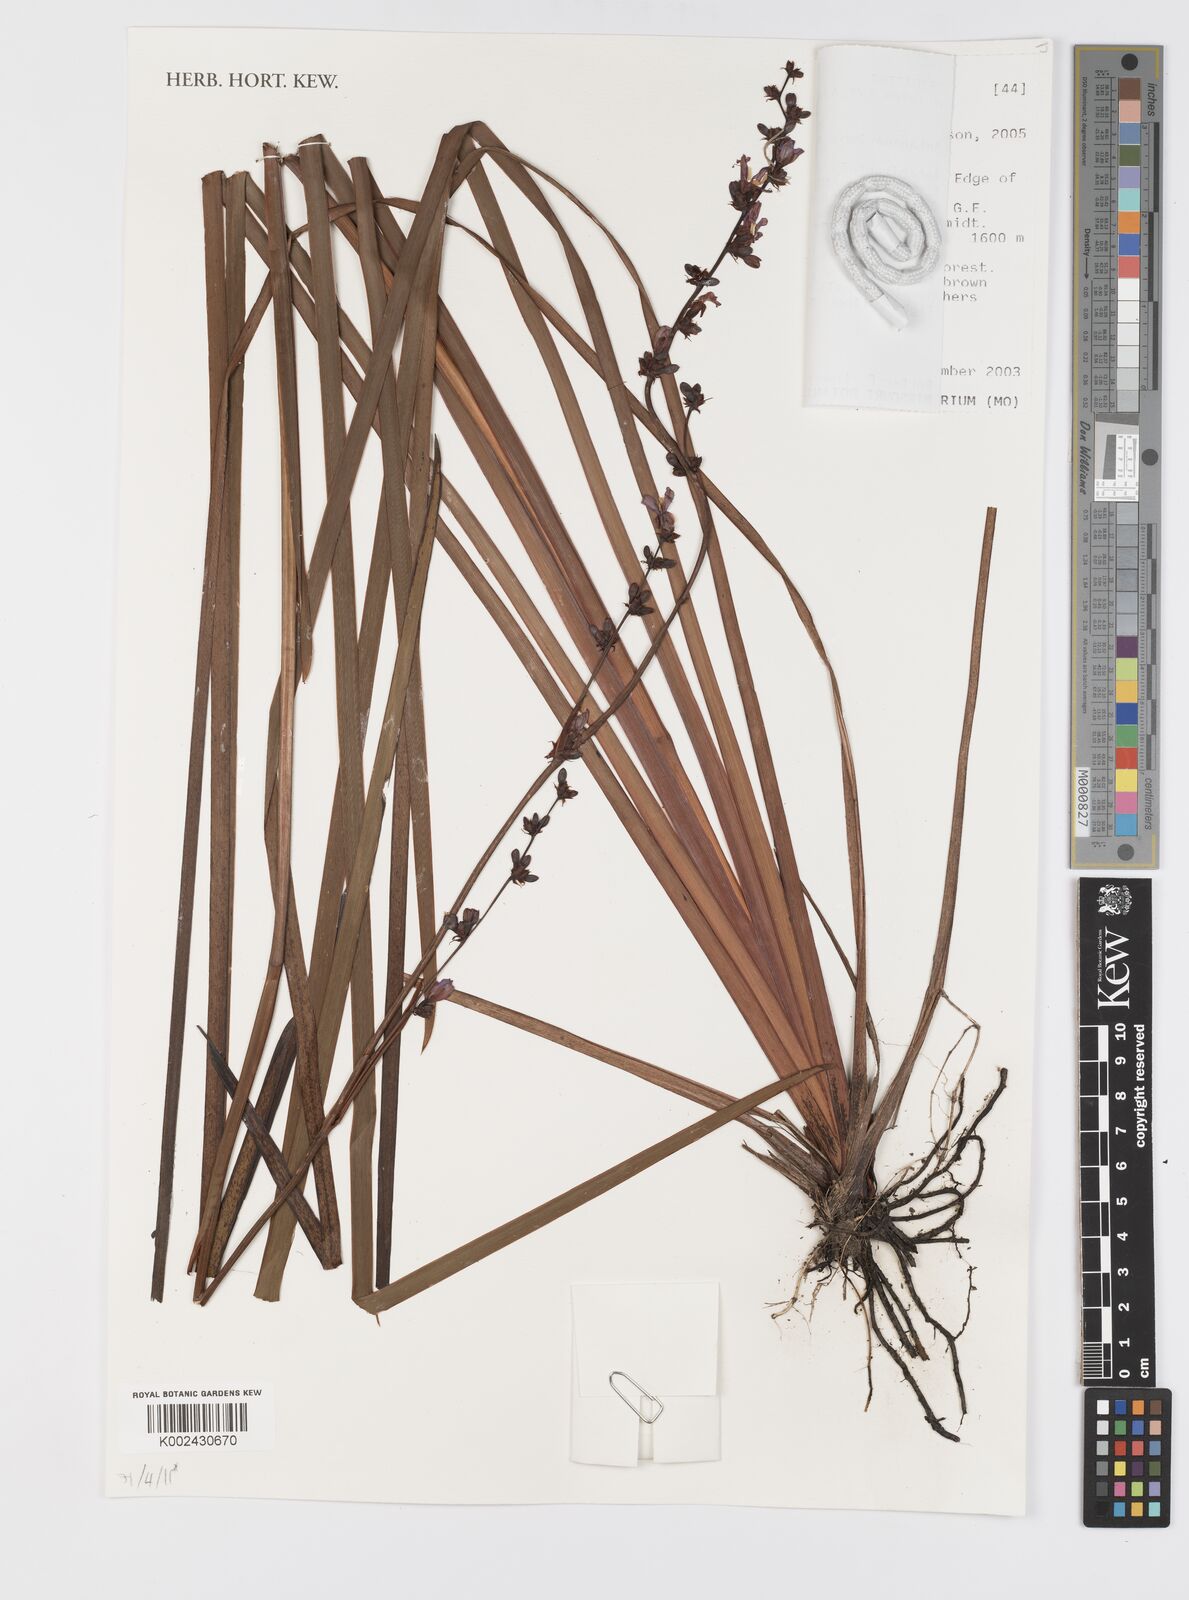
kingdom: Plantae
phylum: Tracheophyta
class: Liliopsida
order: Asparagales
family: Iridaceae
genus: Aristea
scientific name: Aristea kitchingii
